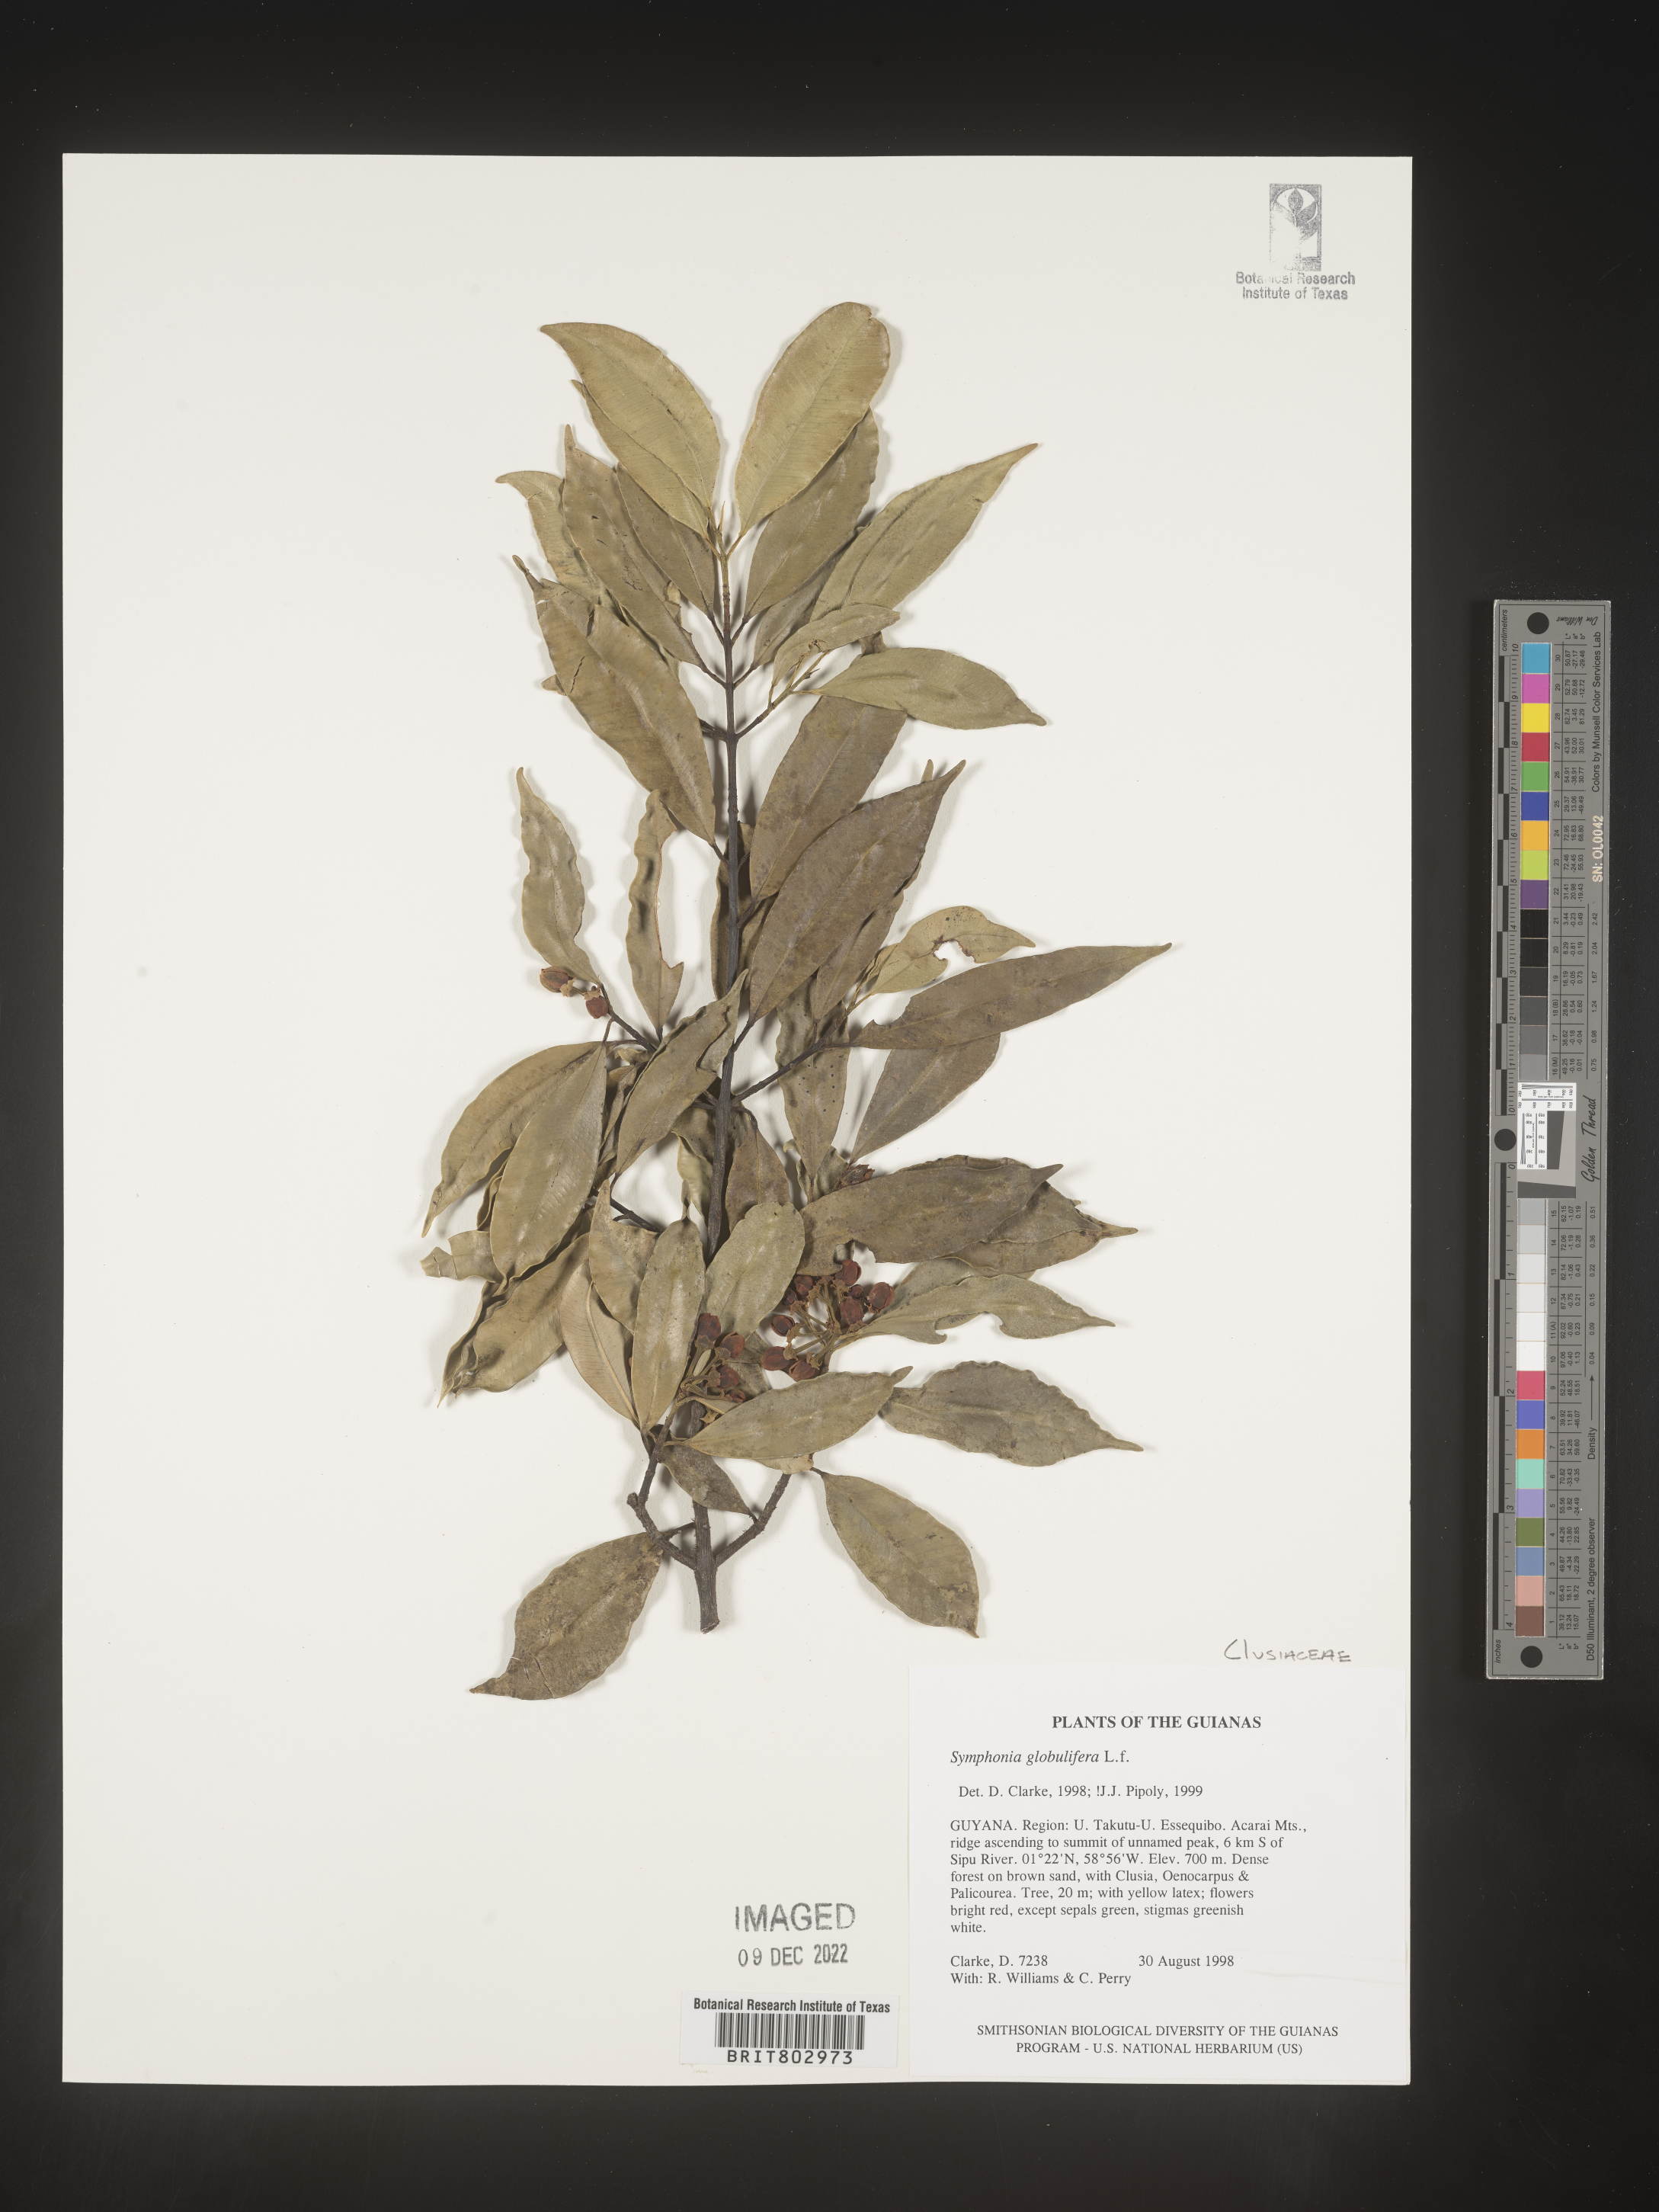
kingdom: Plantae
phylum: Tracheophyta
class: Magnoliopsida
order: Malpighiales
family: Clusiaceae
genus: Symphonia
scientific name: Symphonia globulifera
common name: Boarwood
